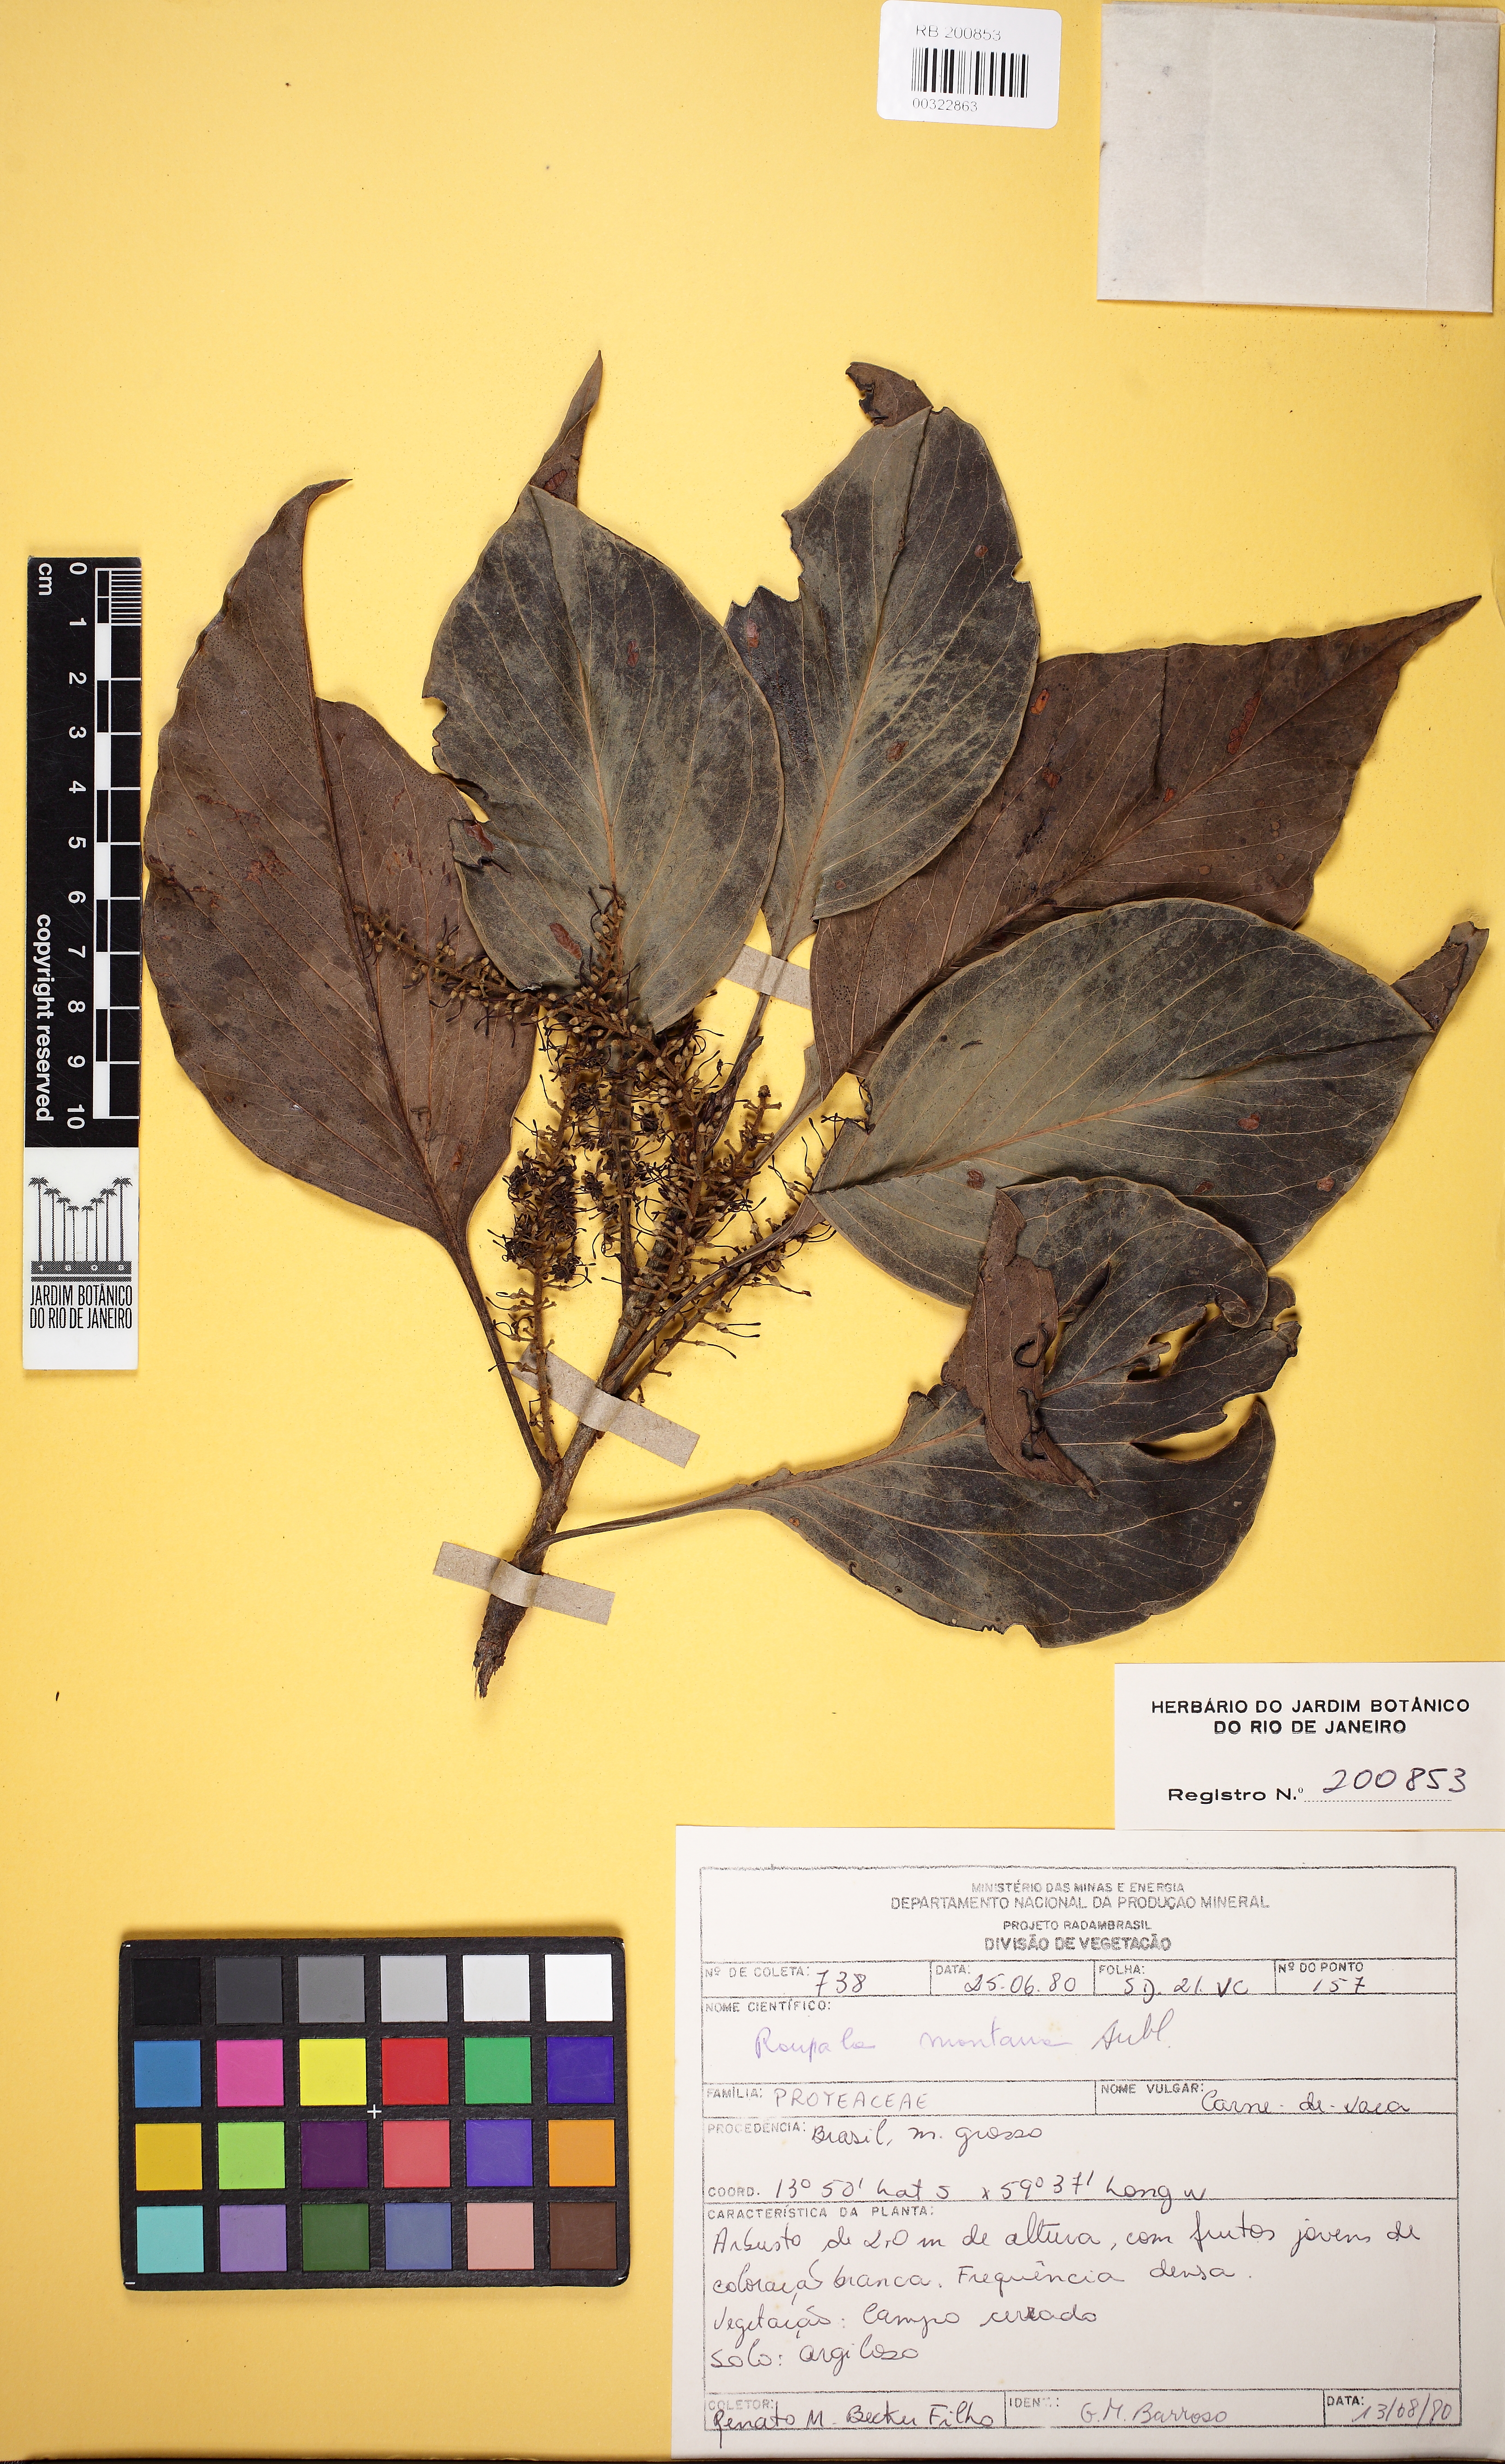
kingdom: Plantae
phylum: Tracheophyta
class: Magnoliopsida
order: Proteales
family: Proteaceae
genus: Roupala
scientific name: Roupala montana
